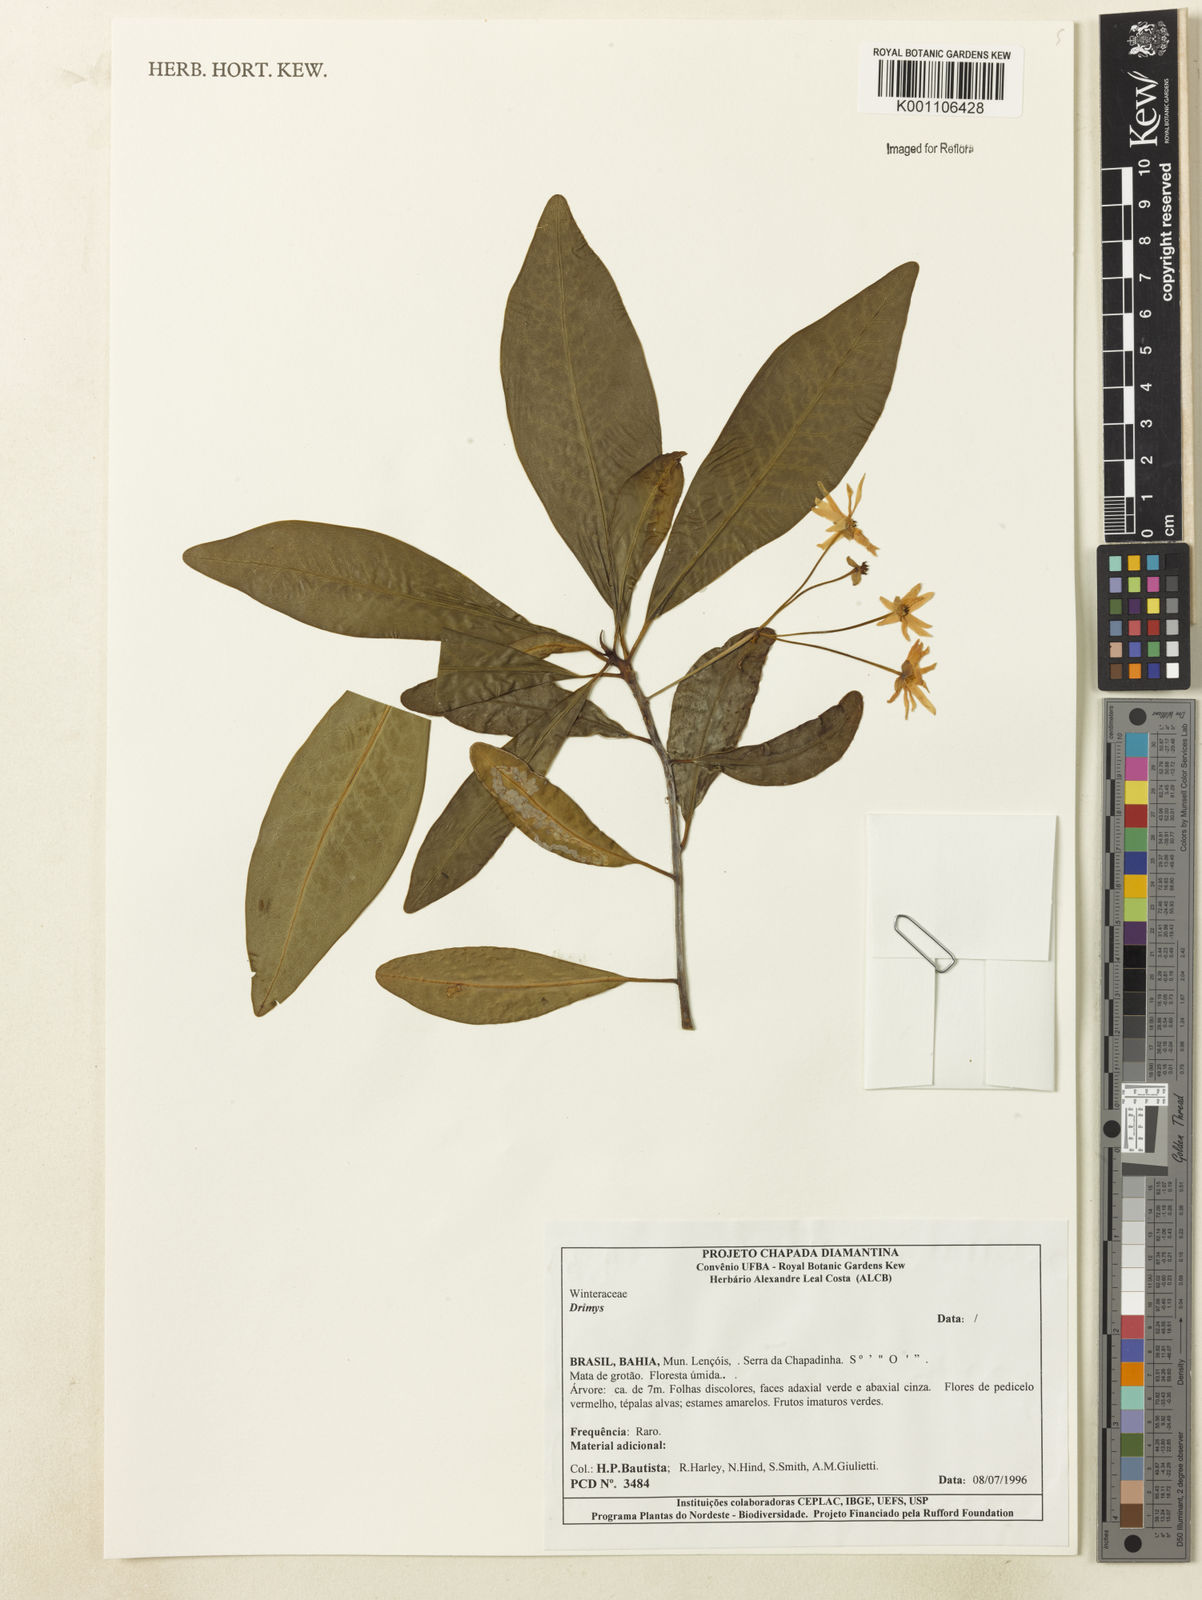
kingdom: Plantae
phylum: Tracheophyta
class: Magnoliopsida
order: Canellales
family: Winteraceae
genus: Drimys
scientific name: Drimys
